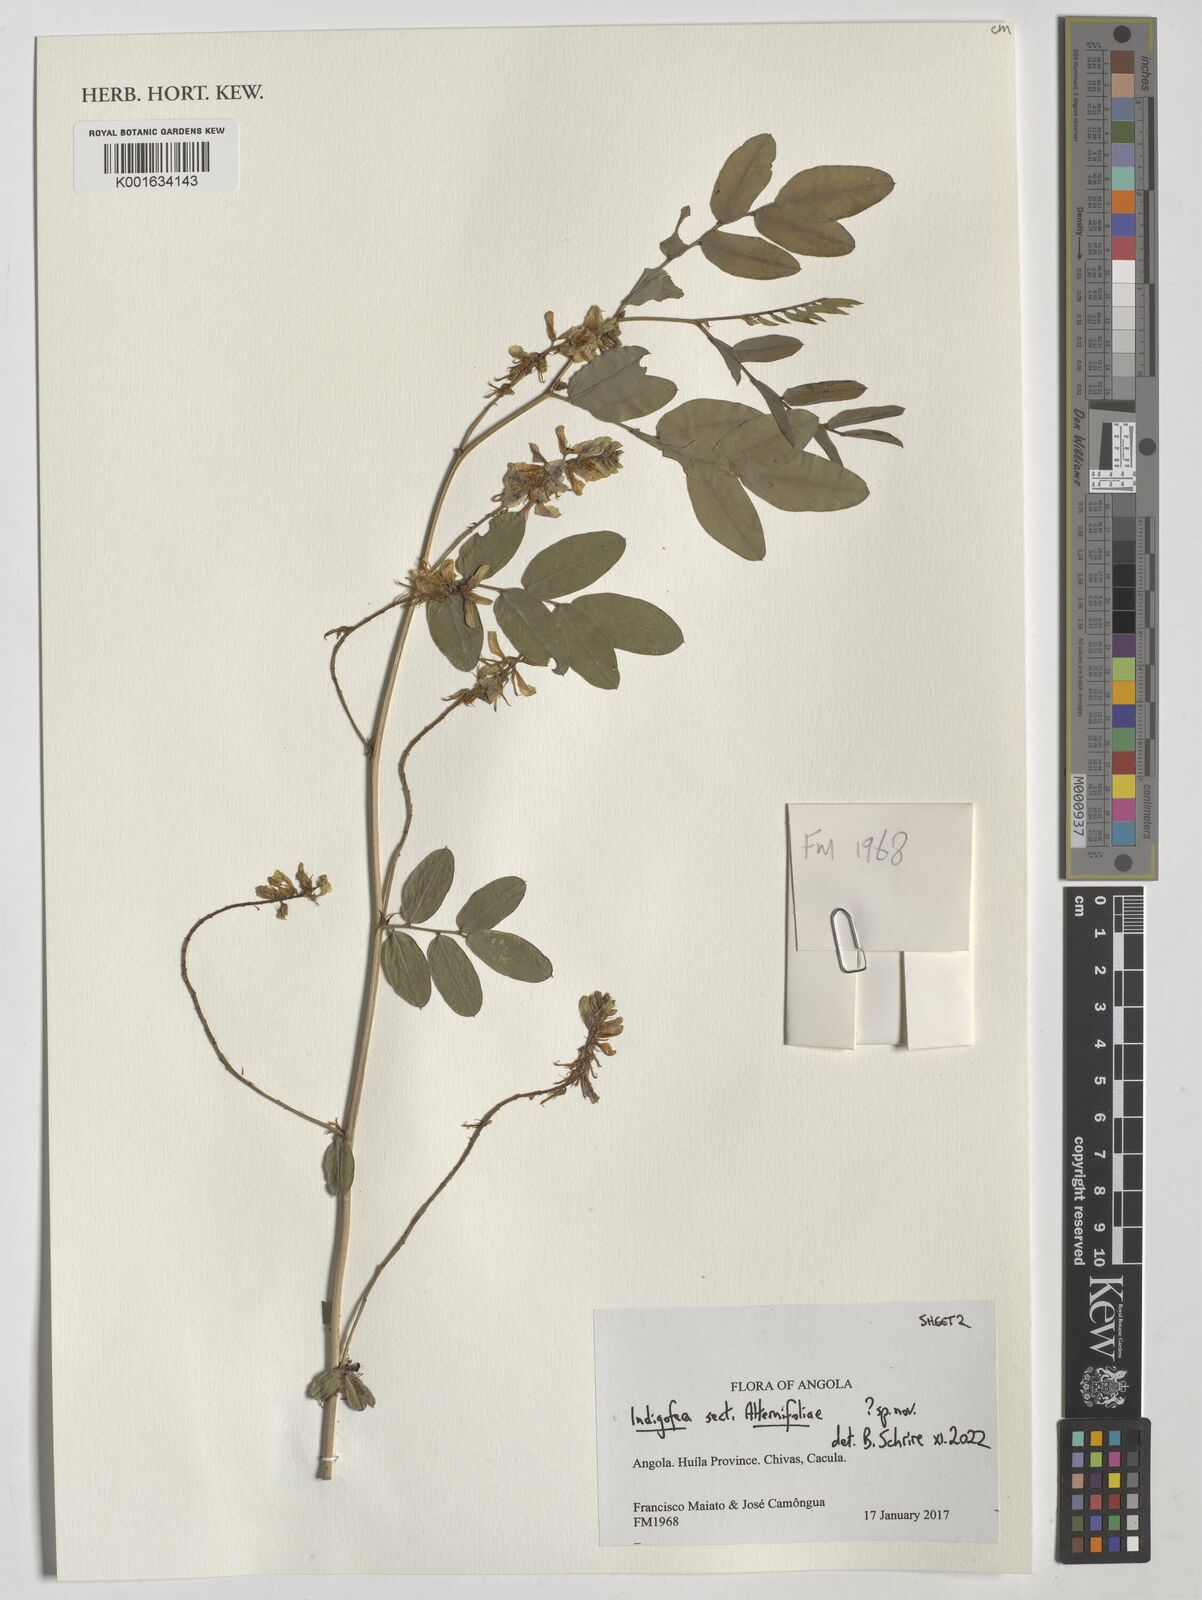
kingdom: Plantae
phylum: Tracheophyta
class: Magnoliopsida
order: Fabales
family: Fabaceae
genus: Indigofera
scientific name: Indigofera
